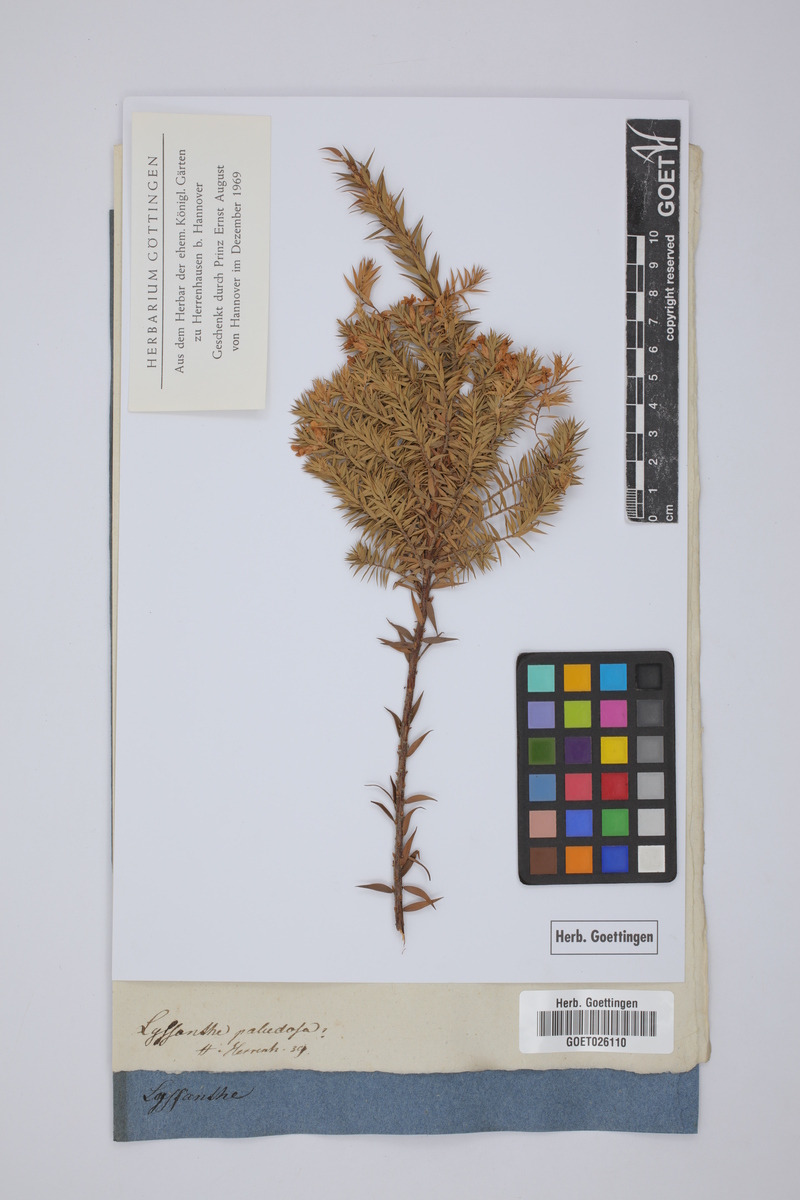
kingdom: Plantae
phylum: Tracheophyta
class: Magnoliopsida
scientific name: Magnoliopsida
